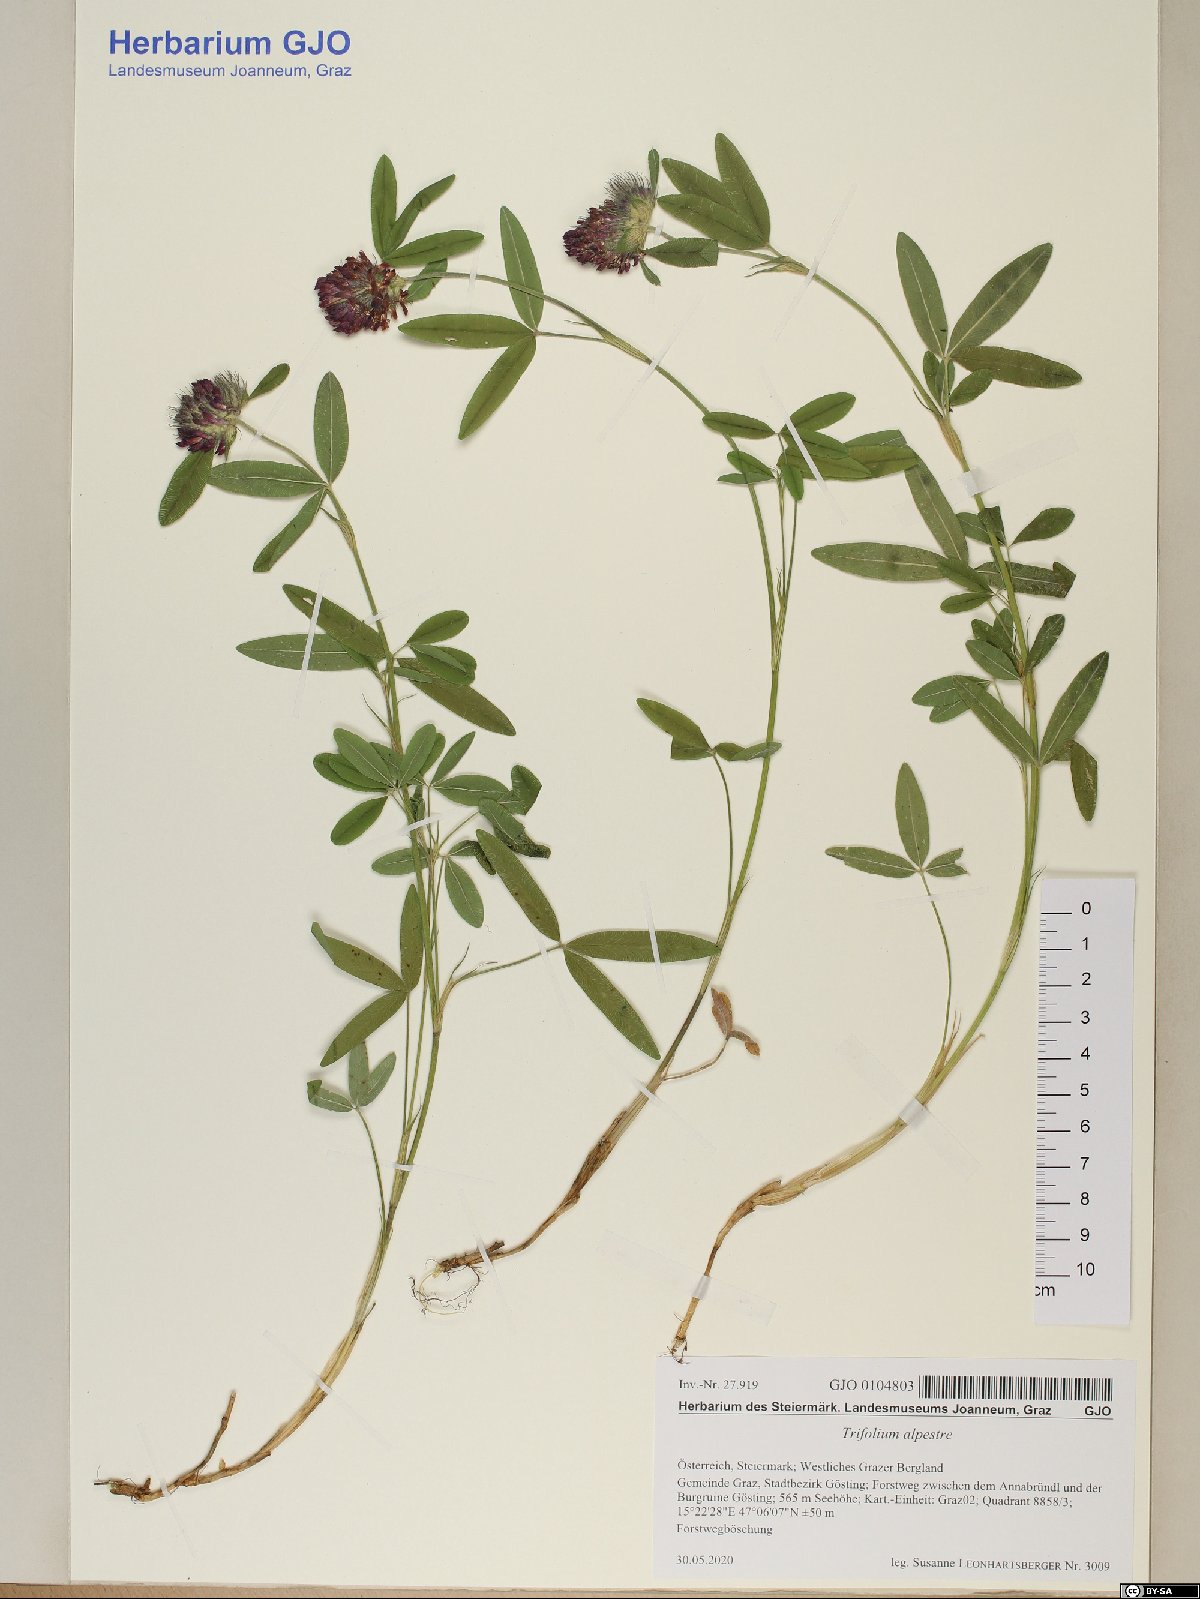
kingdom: Plantae
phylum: Tracheophyta
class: Magnoliopsida
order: Fabales
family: Fabaceae
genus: Trifolium
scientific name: Trifolium alpestre
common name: Owl-head clover
